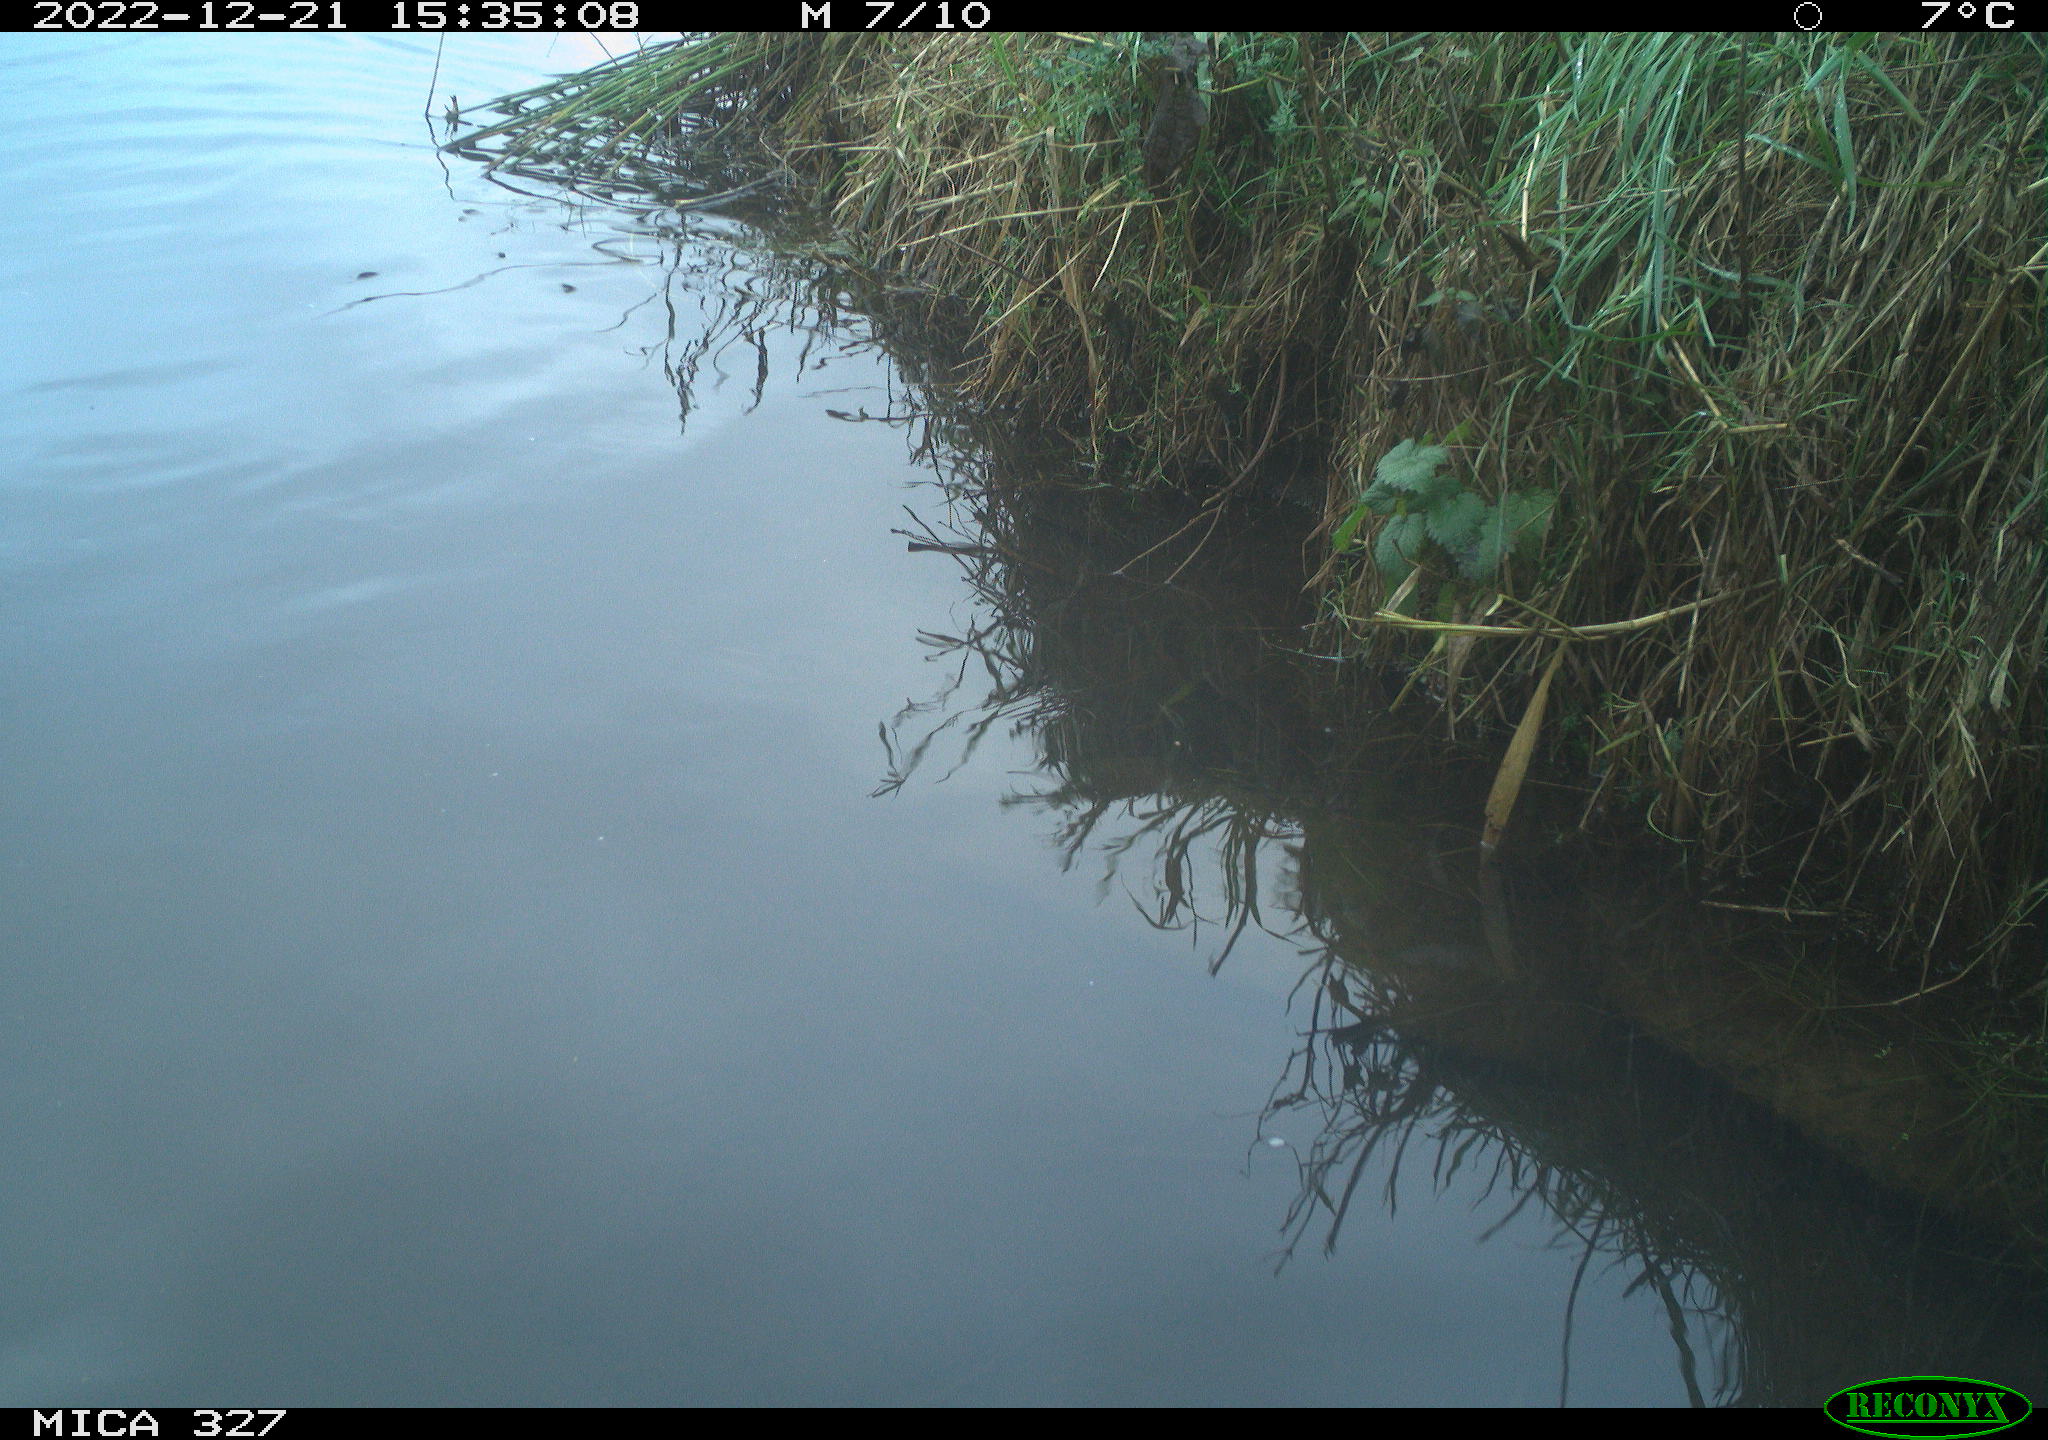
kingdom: Animalia
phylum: Chordata
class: Mammalia
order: Rodentia
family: Cricetidae
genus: Ondatra
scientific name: Ondatra zibethicus
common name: Muskrat
